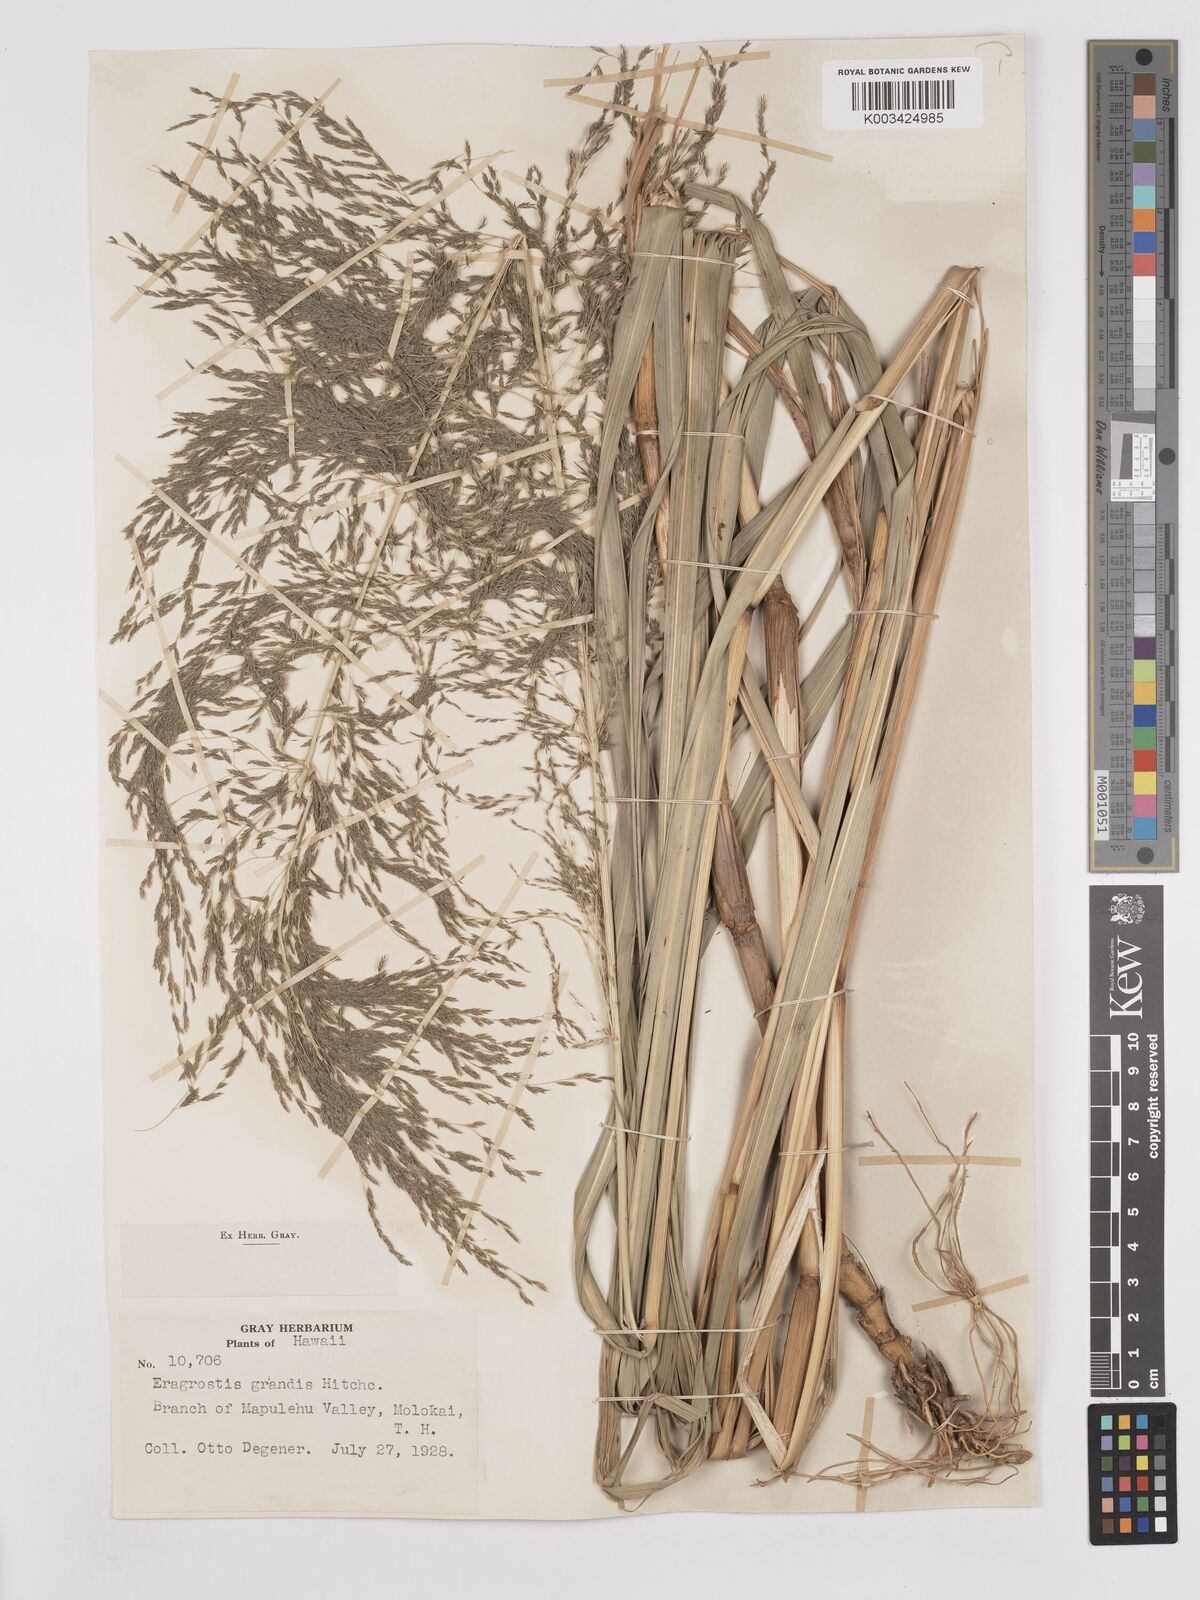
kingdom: Plantae
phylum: Tracheophyta
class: Liliopsida
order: Poales
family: Poaceae
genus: Eragrostis
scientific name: Eragrostis grandis
